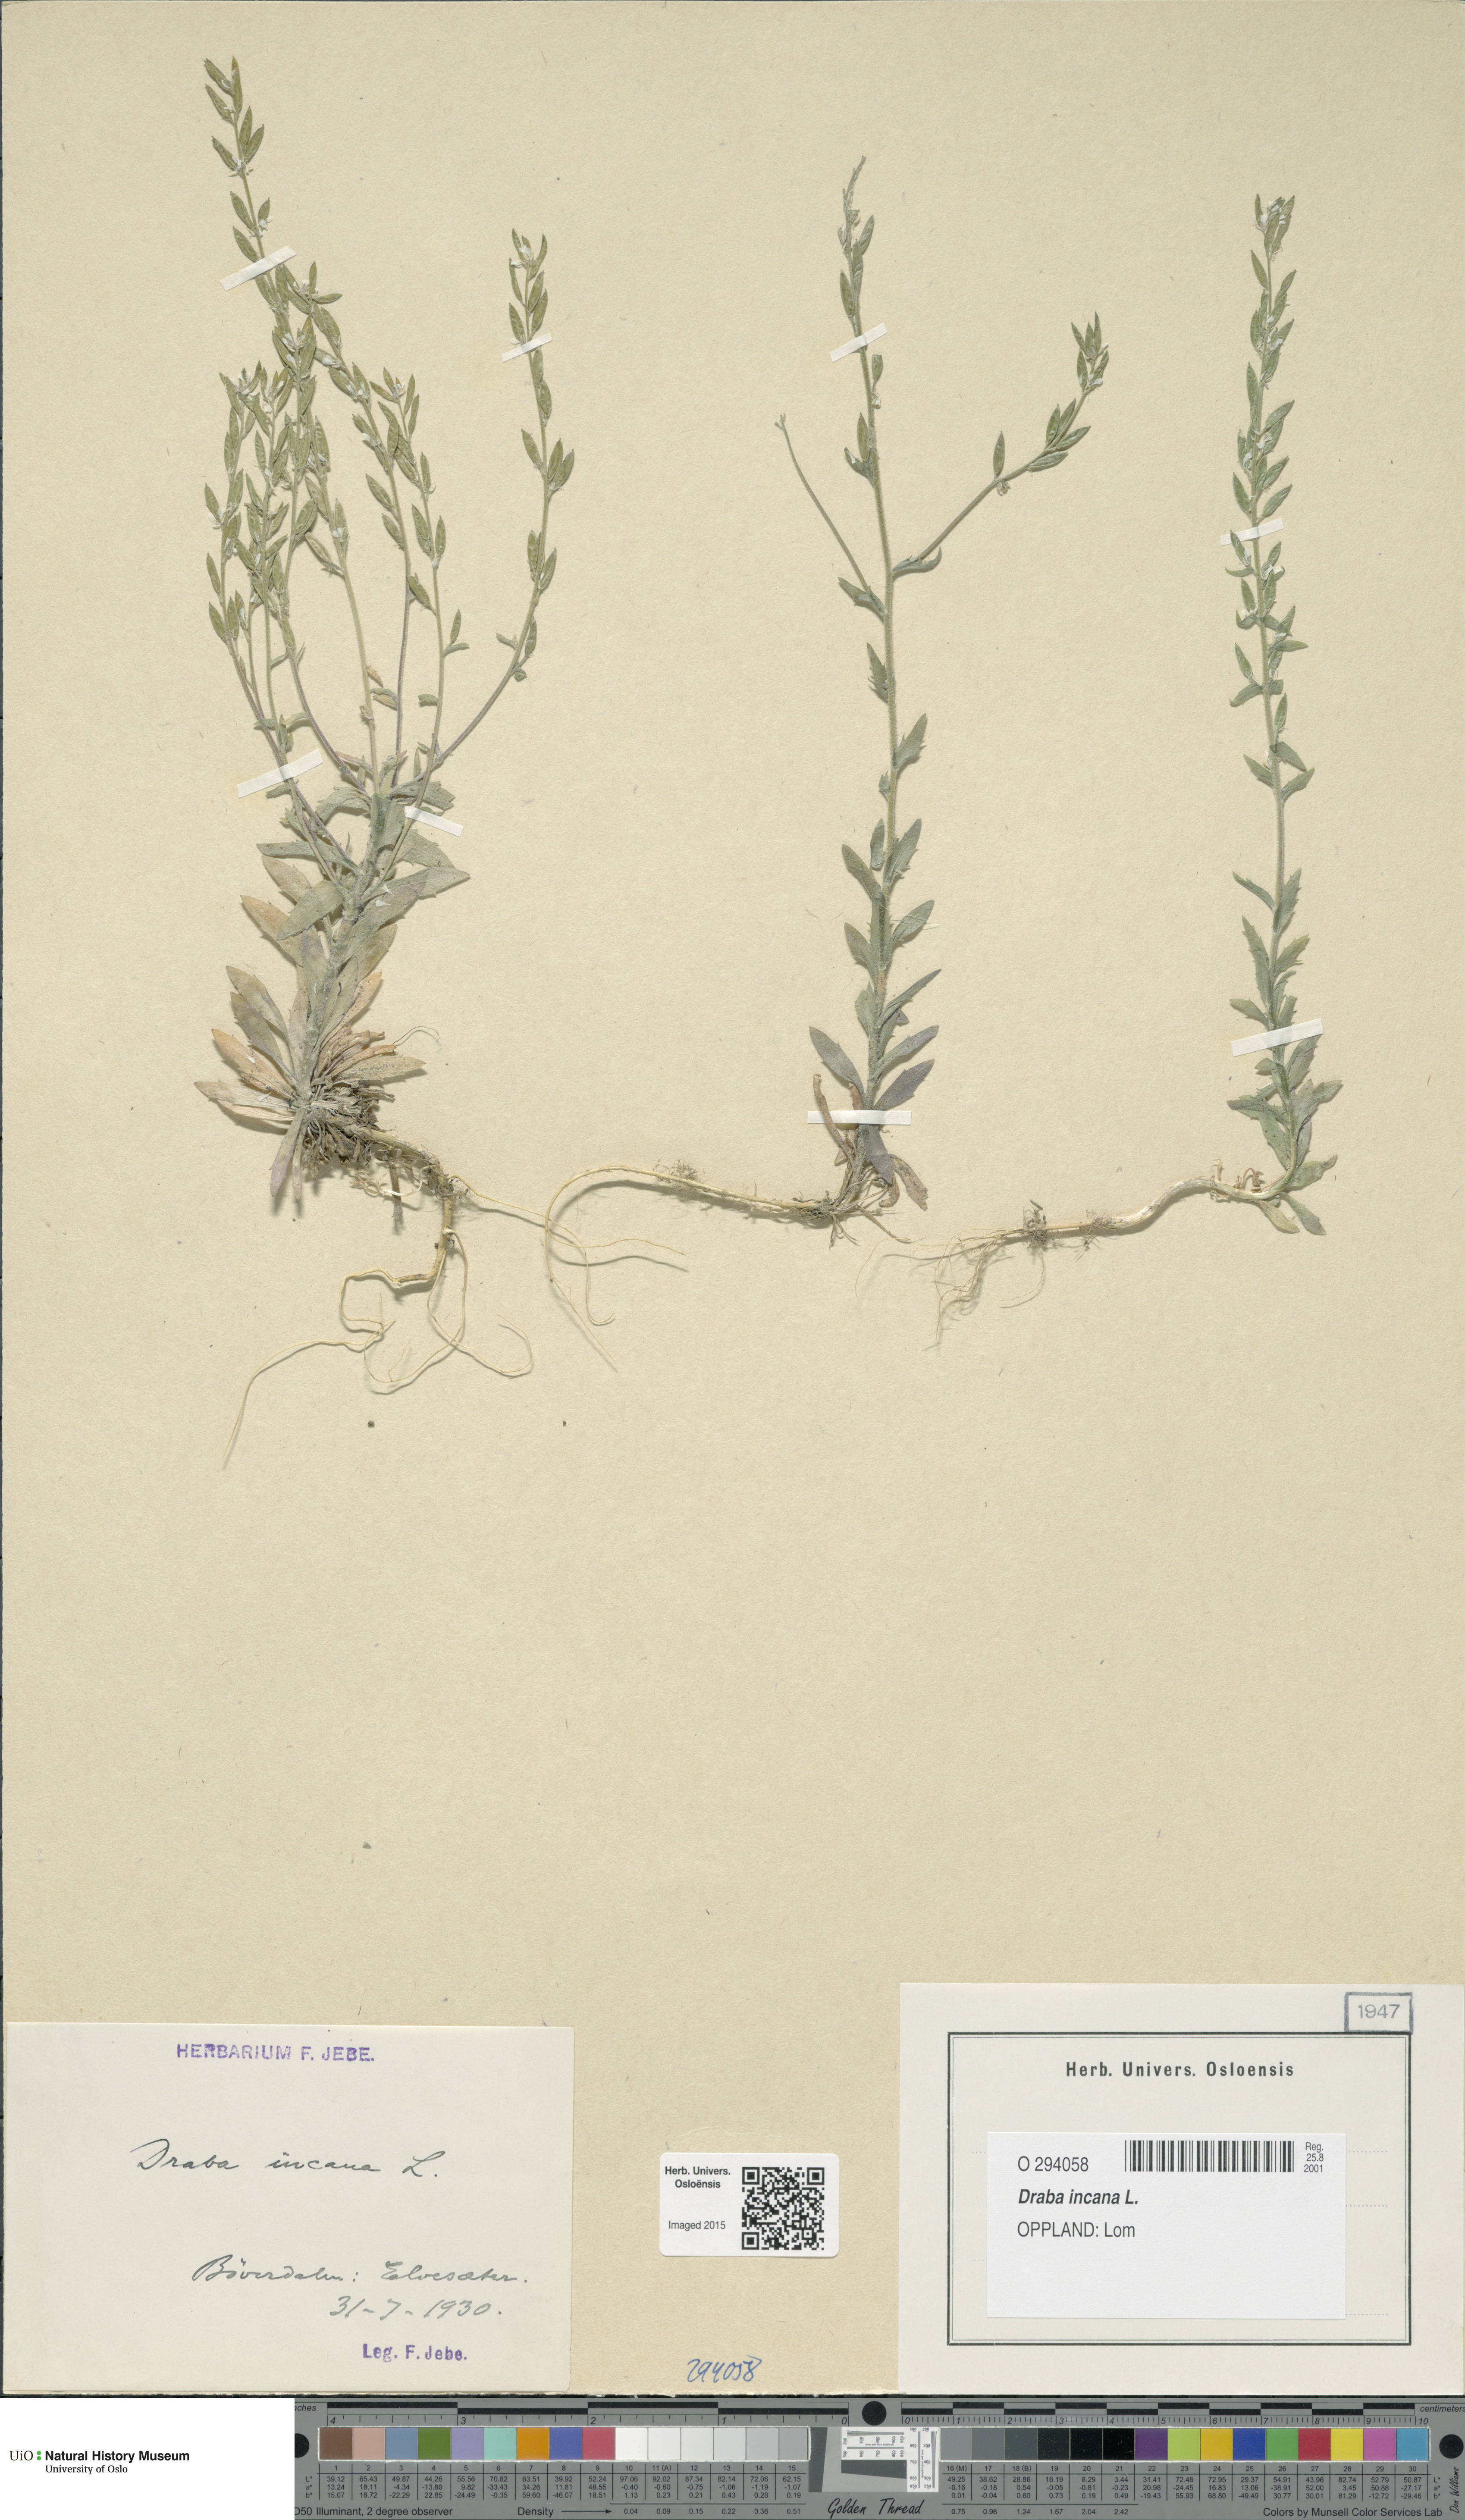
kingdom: Plantae
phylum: Tracheophyta
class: Magnoliopsida
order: Brassicales
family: Brassicaceae
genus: Draba
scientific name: Draba incana
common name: Hoary whitlow-grass
